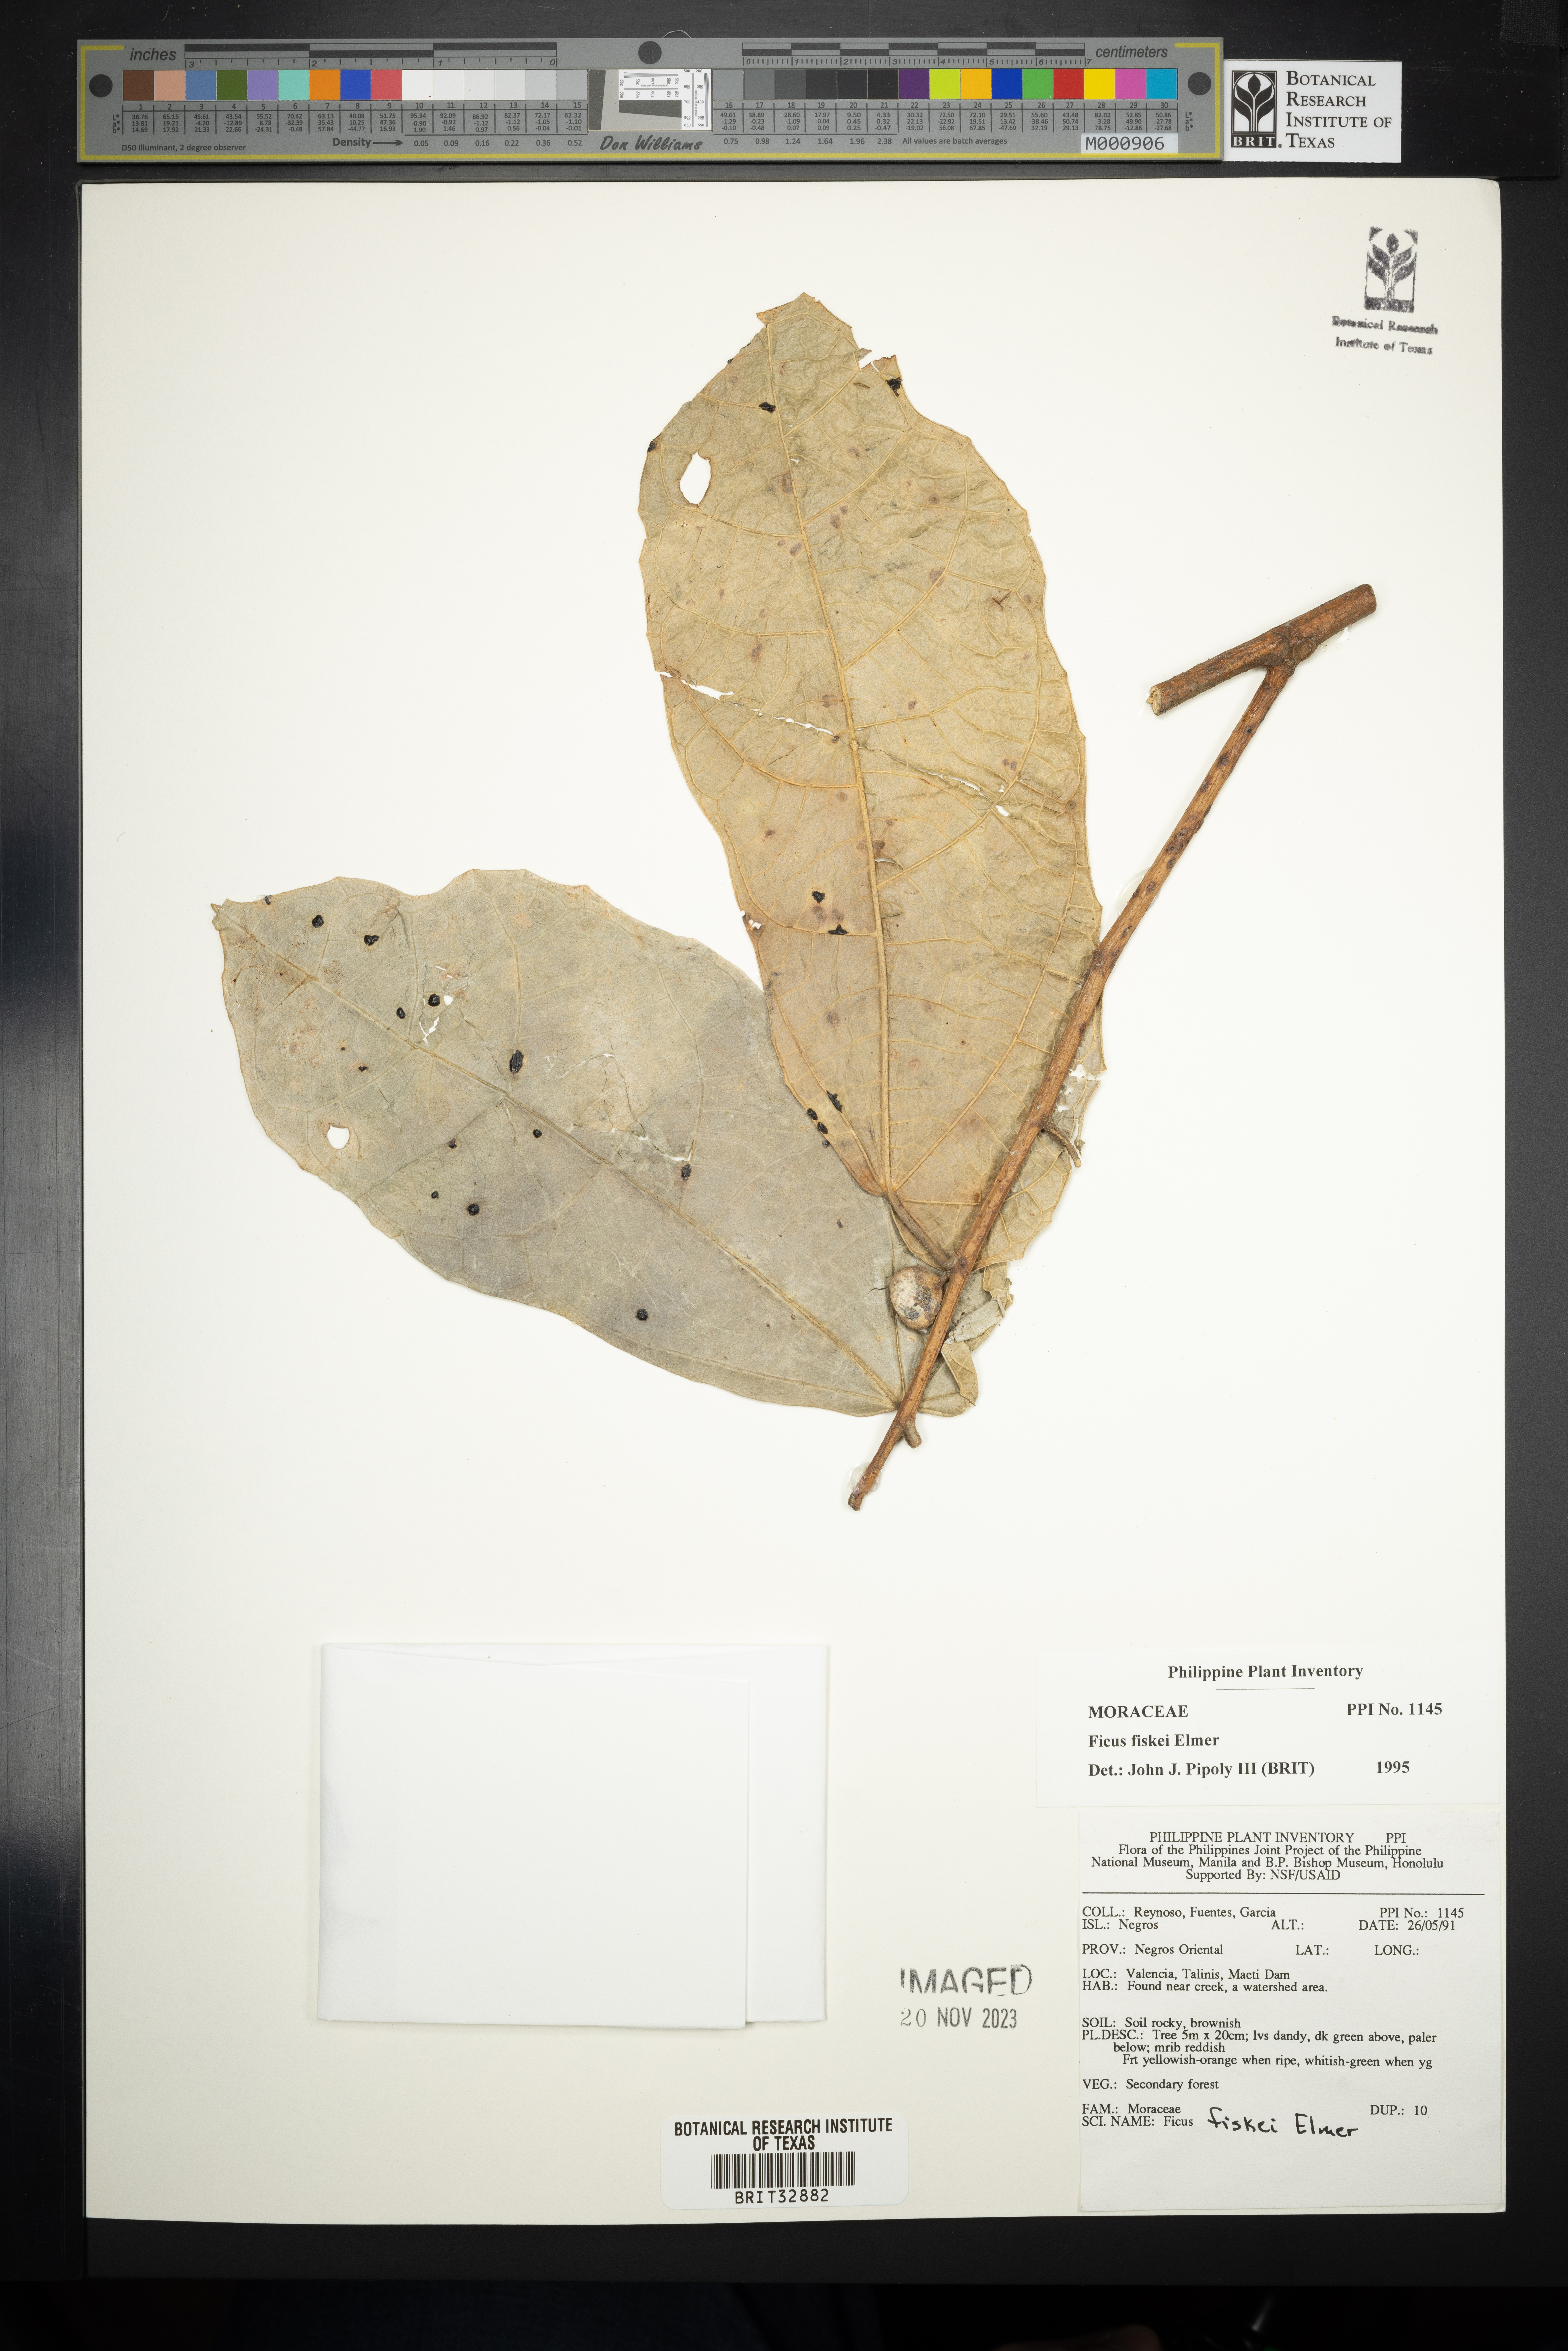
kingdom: Plantae
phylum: Tracheophyta
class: Magnoliopsida
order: Rosales
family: Moraceae
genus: Ficus
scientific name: Ficus fiskei
